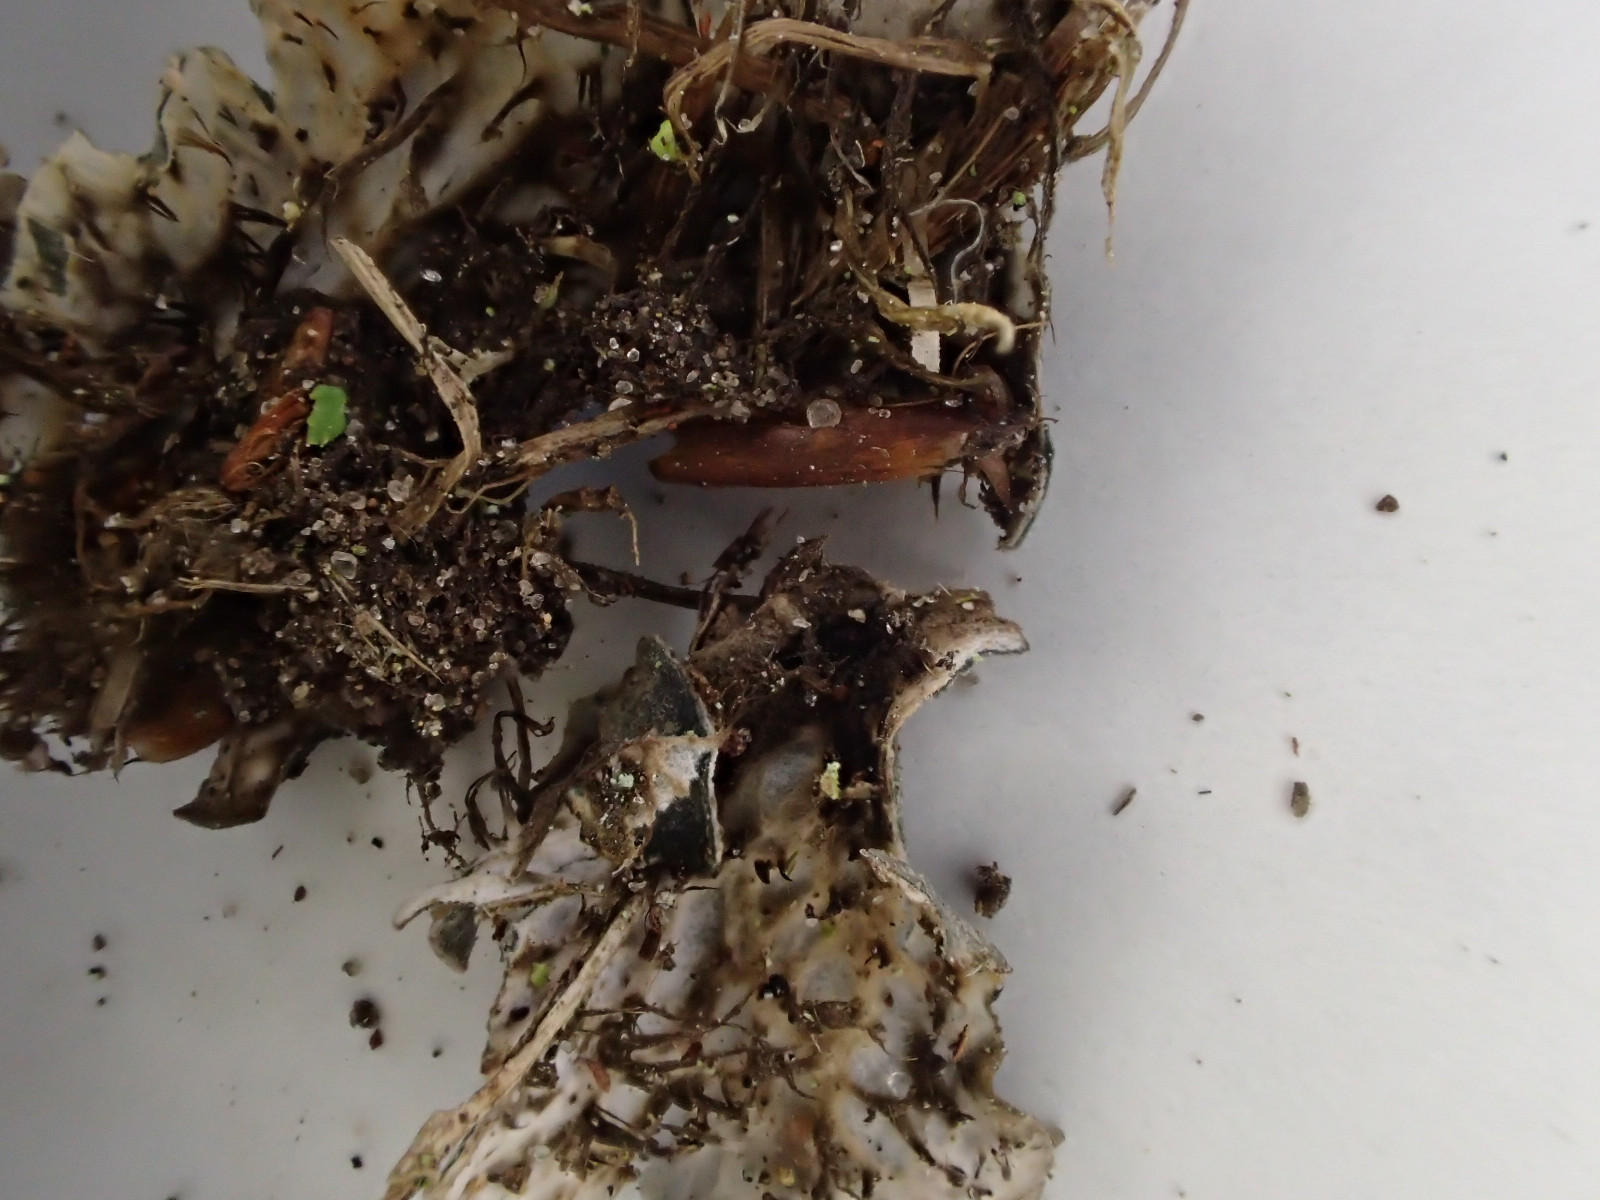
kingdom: Fungi
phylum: Ascomycota
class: Lecanoromycetes
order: Peltigerales
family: Peltigeraceae
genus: Peltigera
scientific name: Peltigera didactyla
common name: liden skjoldlav
